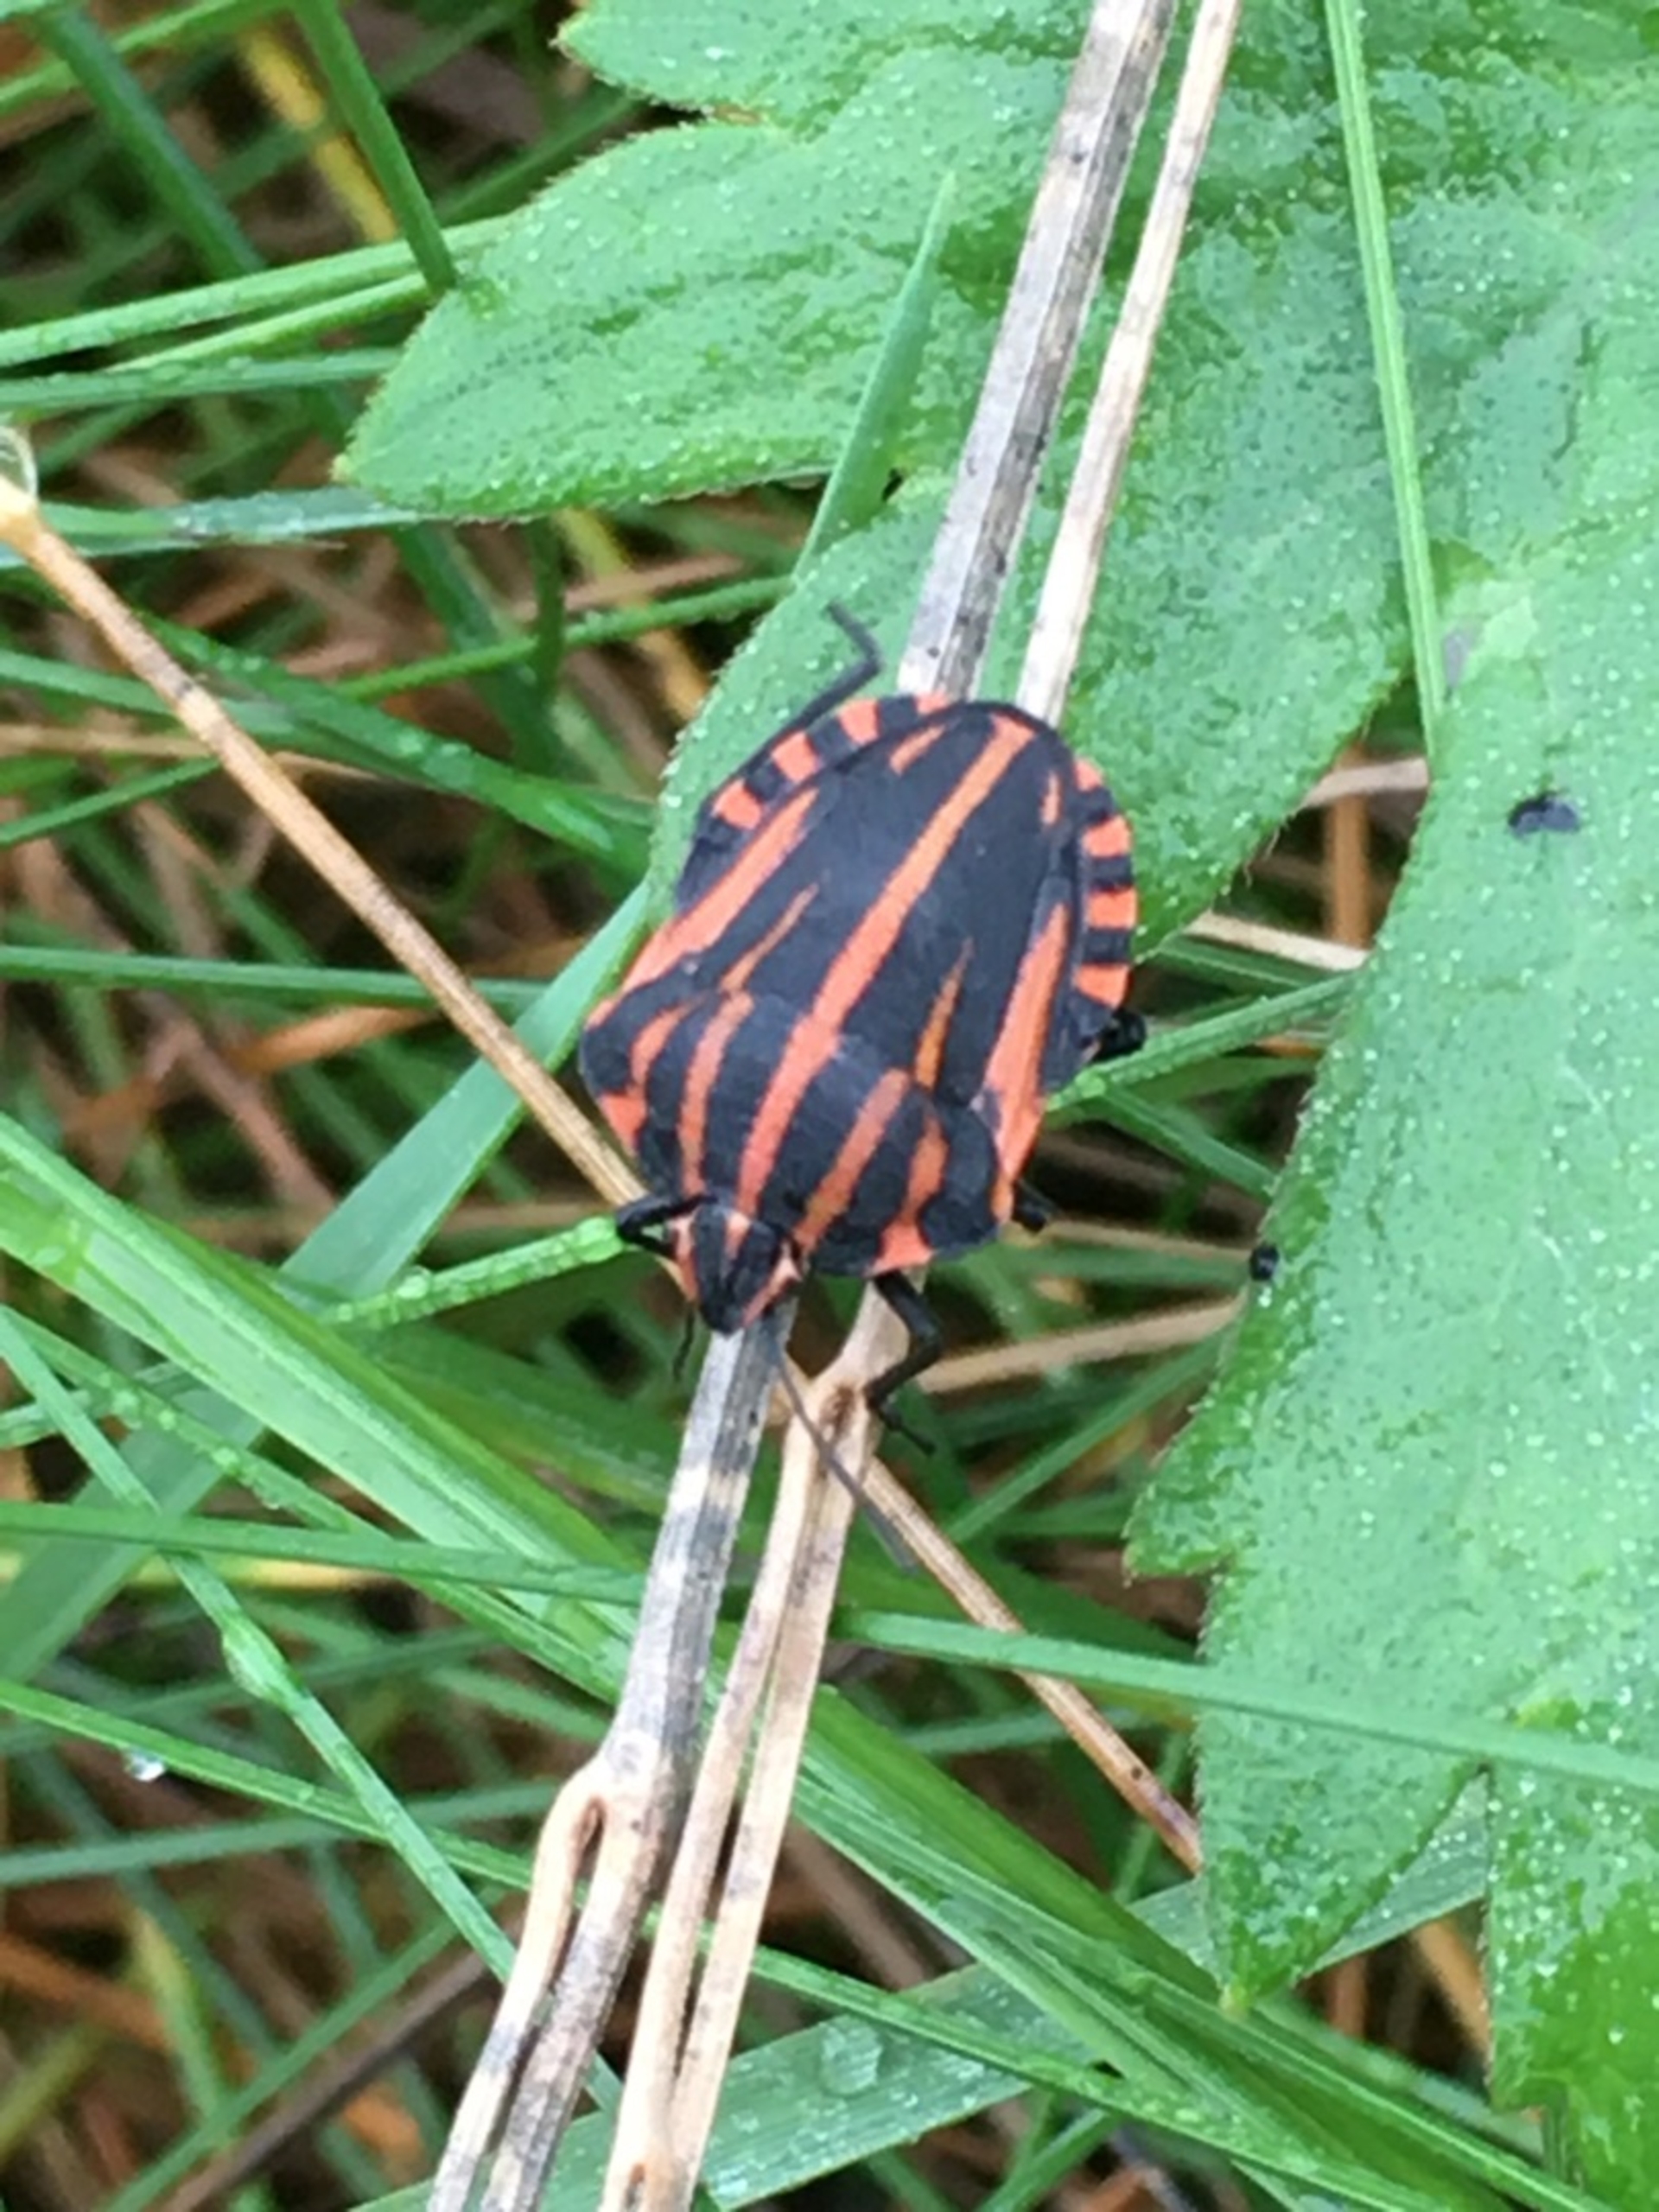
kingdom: Animalia
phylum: Arthropoda
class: Insecta
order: Hemiptera
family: Pentatomidae
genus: Graphosoma
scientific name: Graphosoma italicum
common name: Stribetæge
